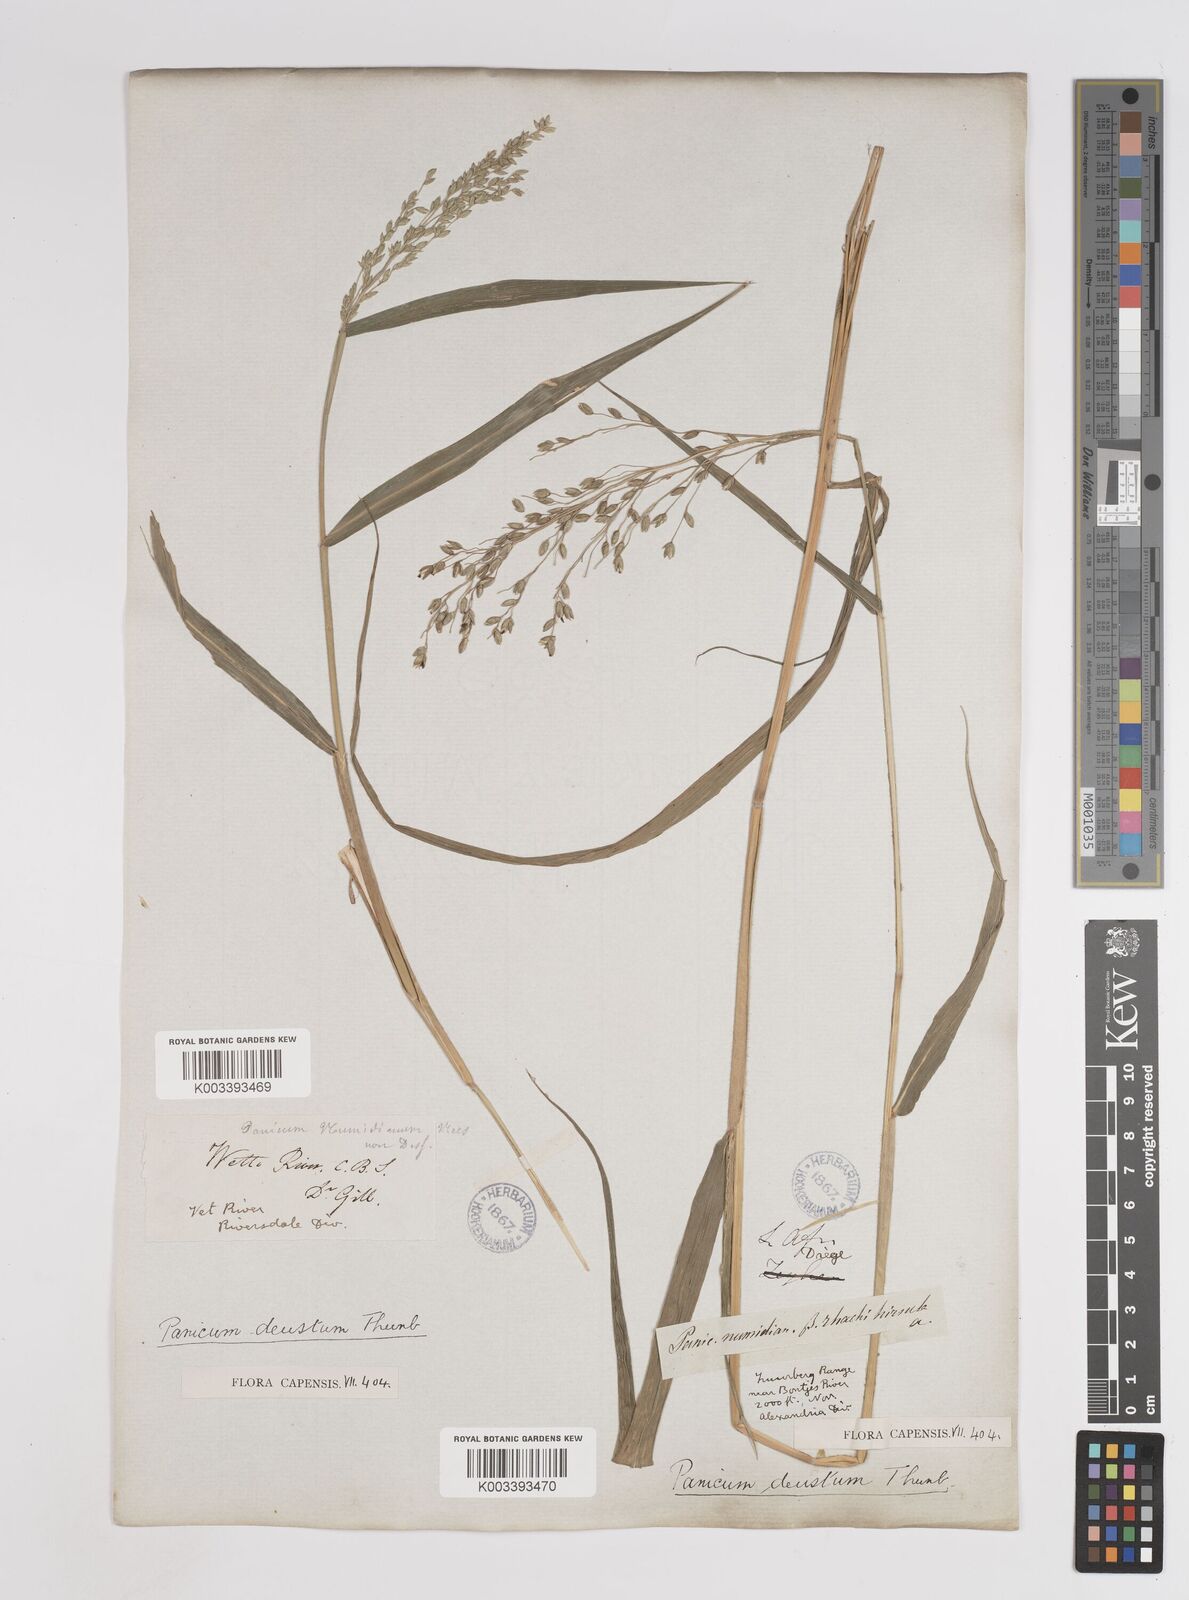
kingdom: Plantae
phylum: Tracheophyta
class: Liliopsida
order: Poales
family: Poaceae
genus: Panicum
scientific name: Panicum deustum
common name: Reed panicum
